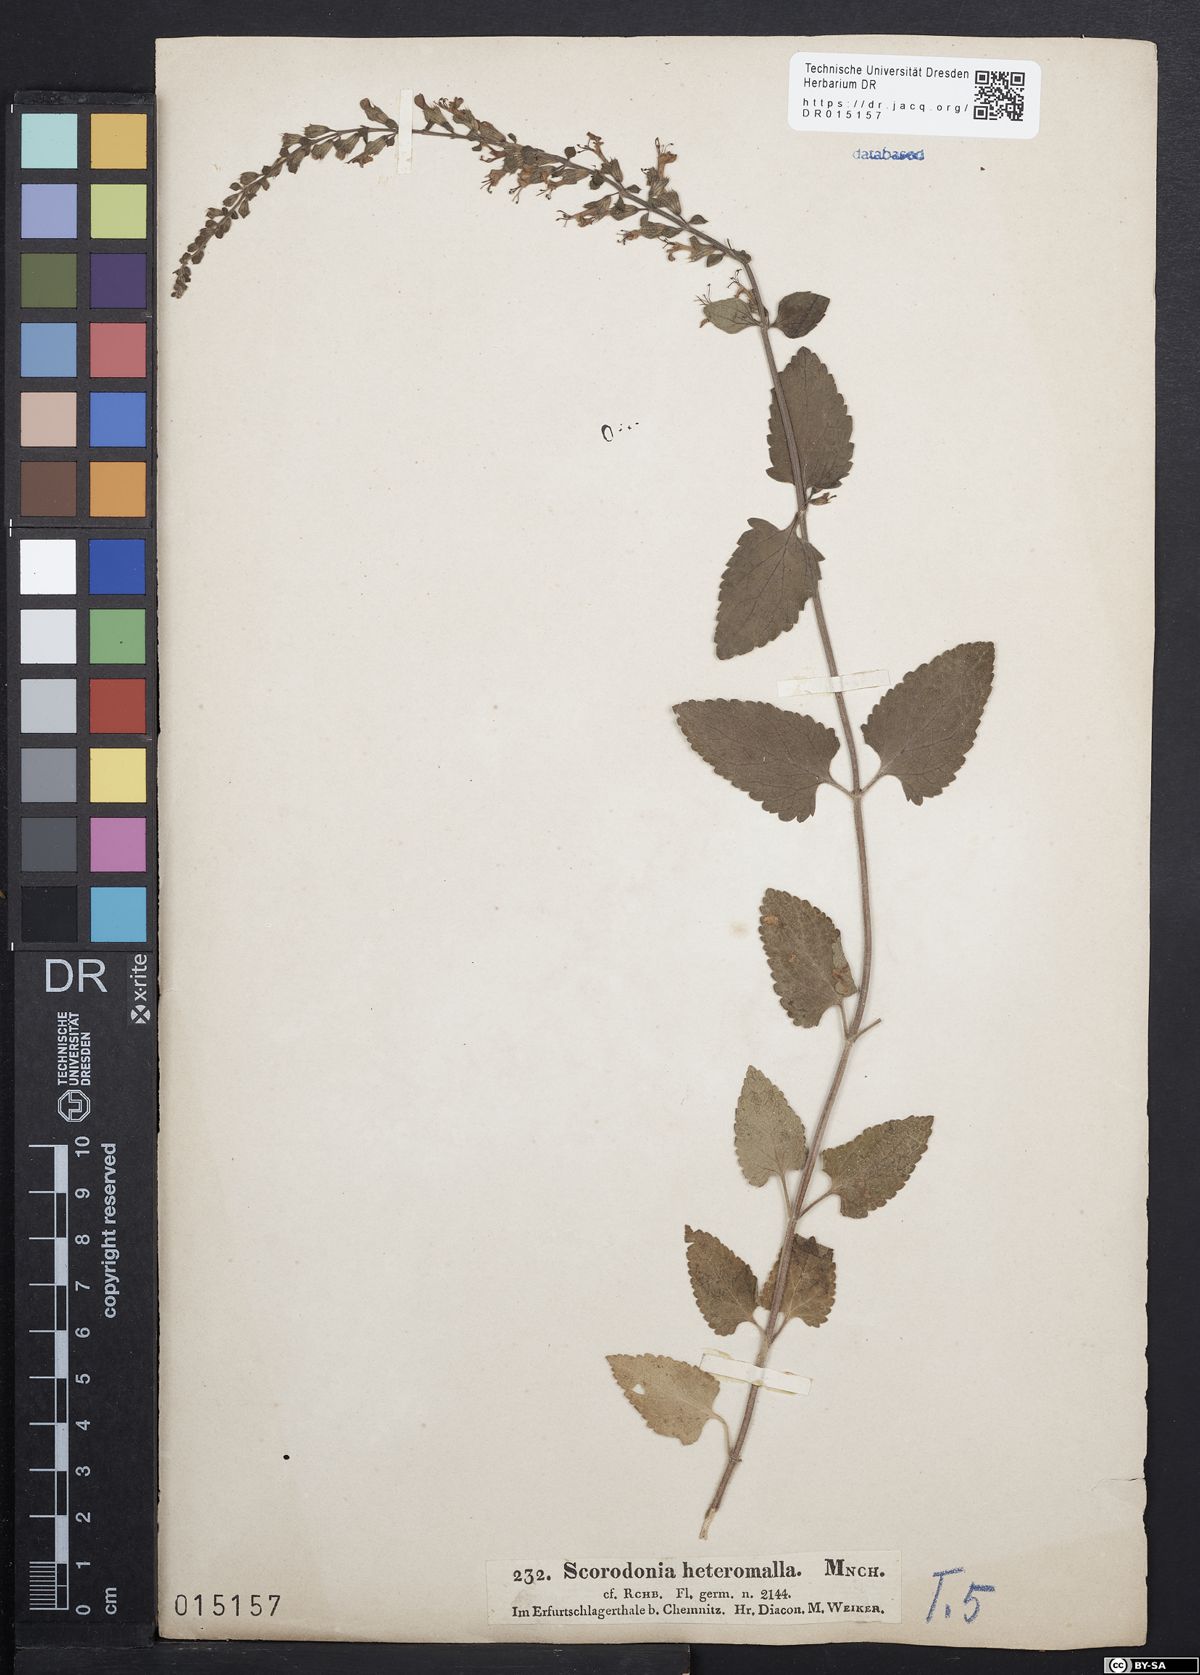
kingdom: Plantae
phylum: Tracheophyta
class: Magnoliopsida
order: Lamiales
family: Lamiaceae
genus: Teucrium
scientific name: Teucrium scorodonia
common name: Woodland germander
